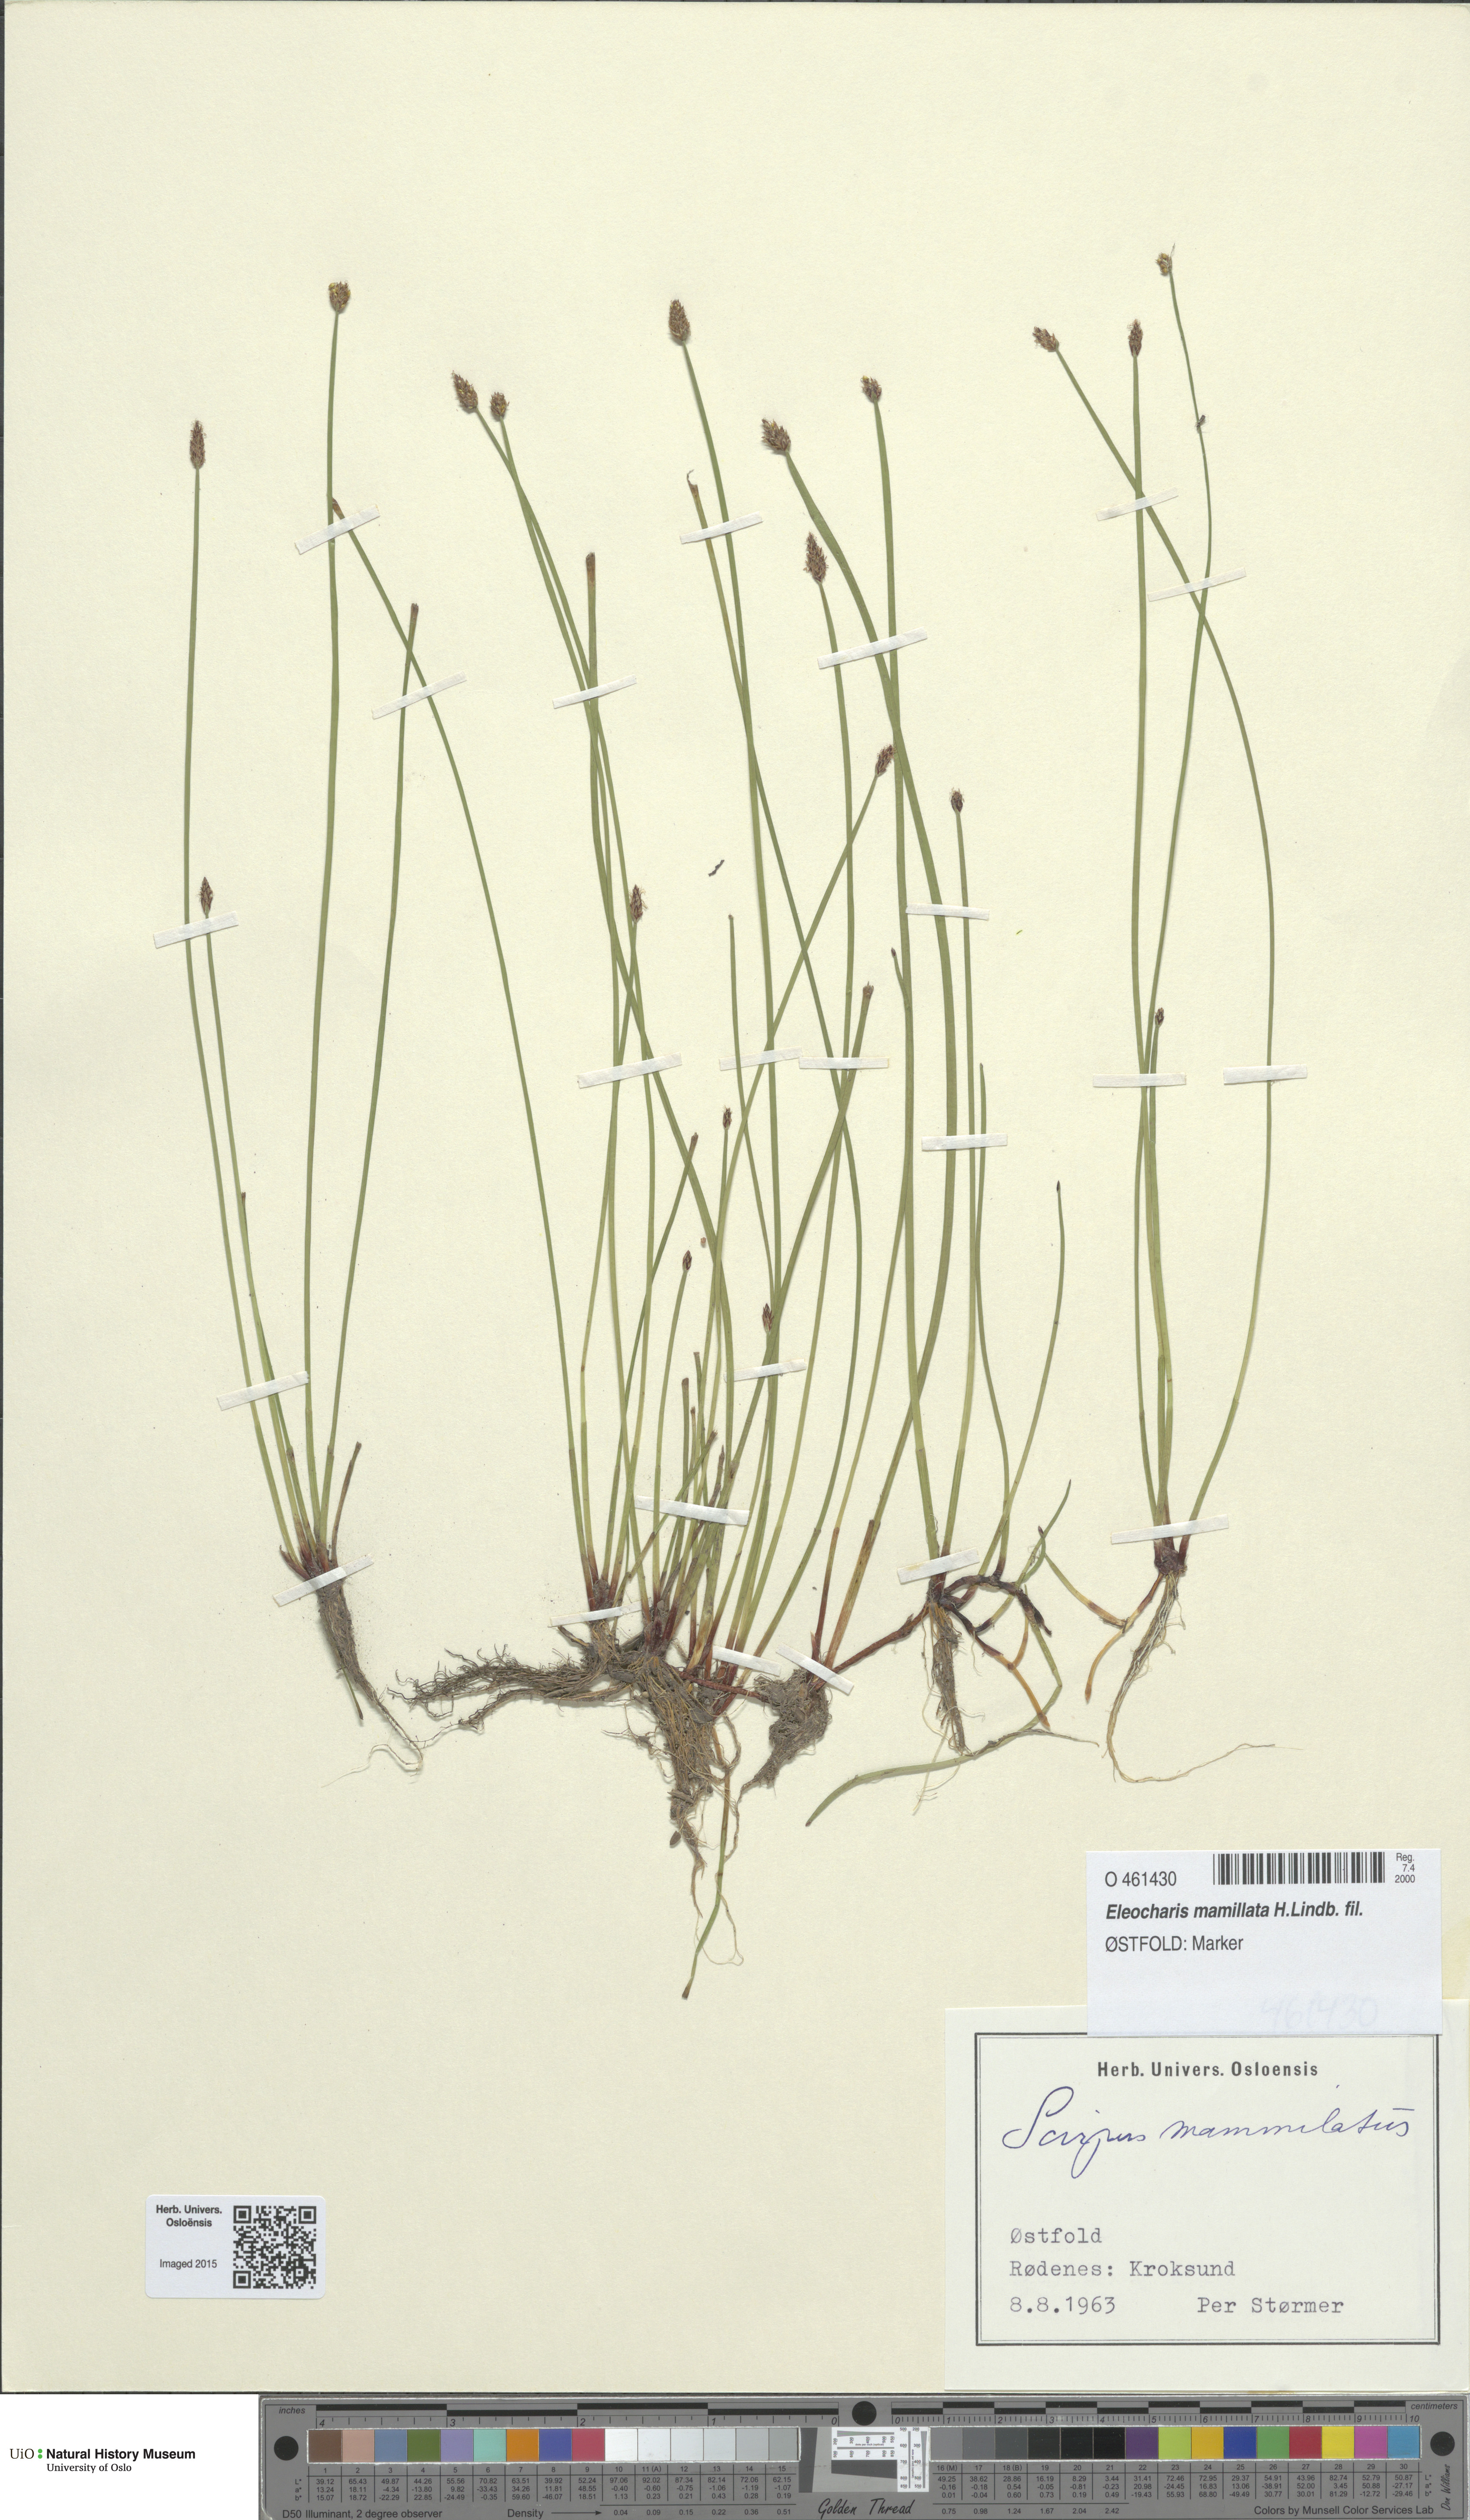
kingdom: Plantae
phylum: Tracheophyta
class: Liliopsida
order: Poales
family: Cyperaceae
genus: Eleocharis
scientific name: Eleocharis mamillata
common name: Northern spike-rush
